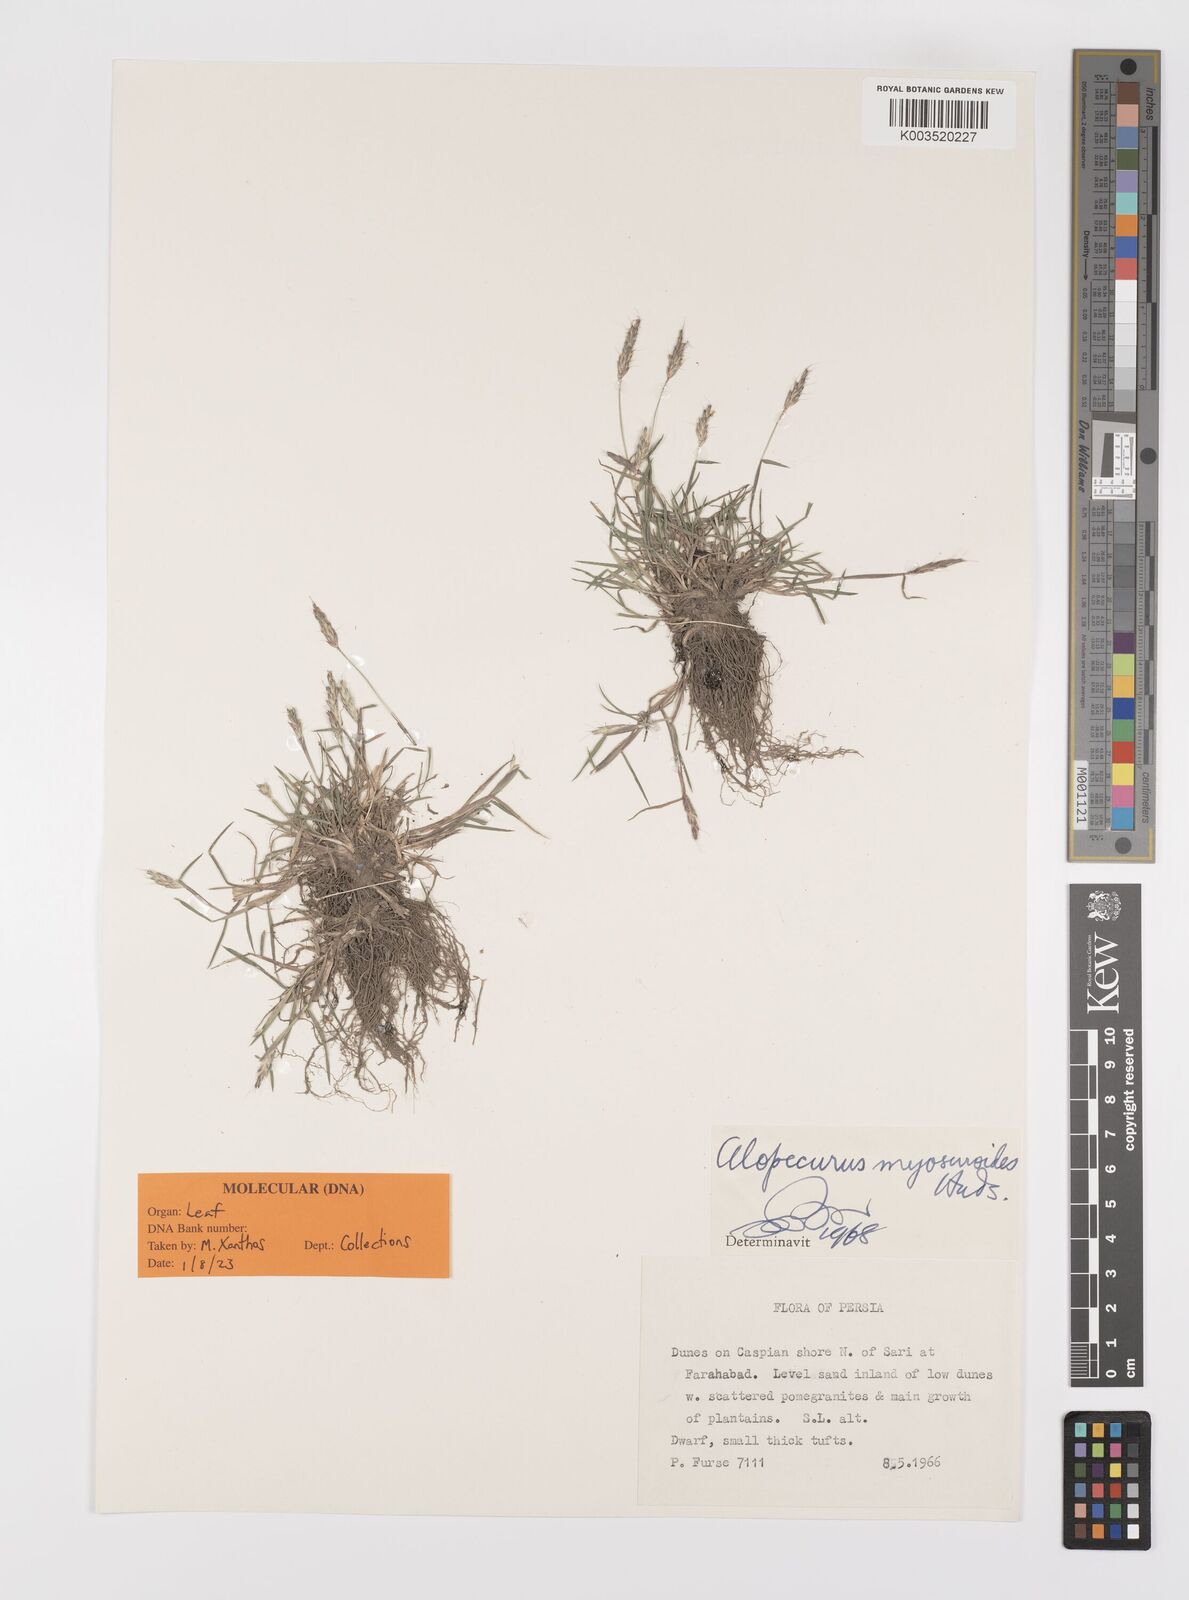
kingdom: Plantae
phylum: Tracheophyta
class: Liliopsida
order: Poales
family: Poaceae
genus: Alopecurus
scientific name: Alopecurus myosuroides
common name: Black-grass
